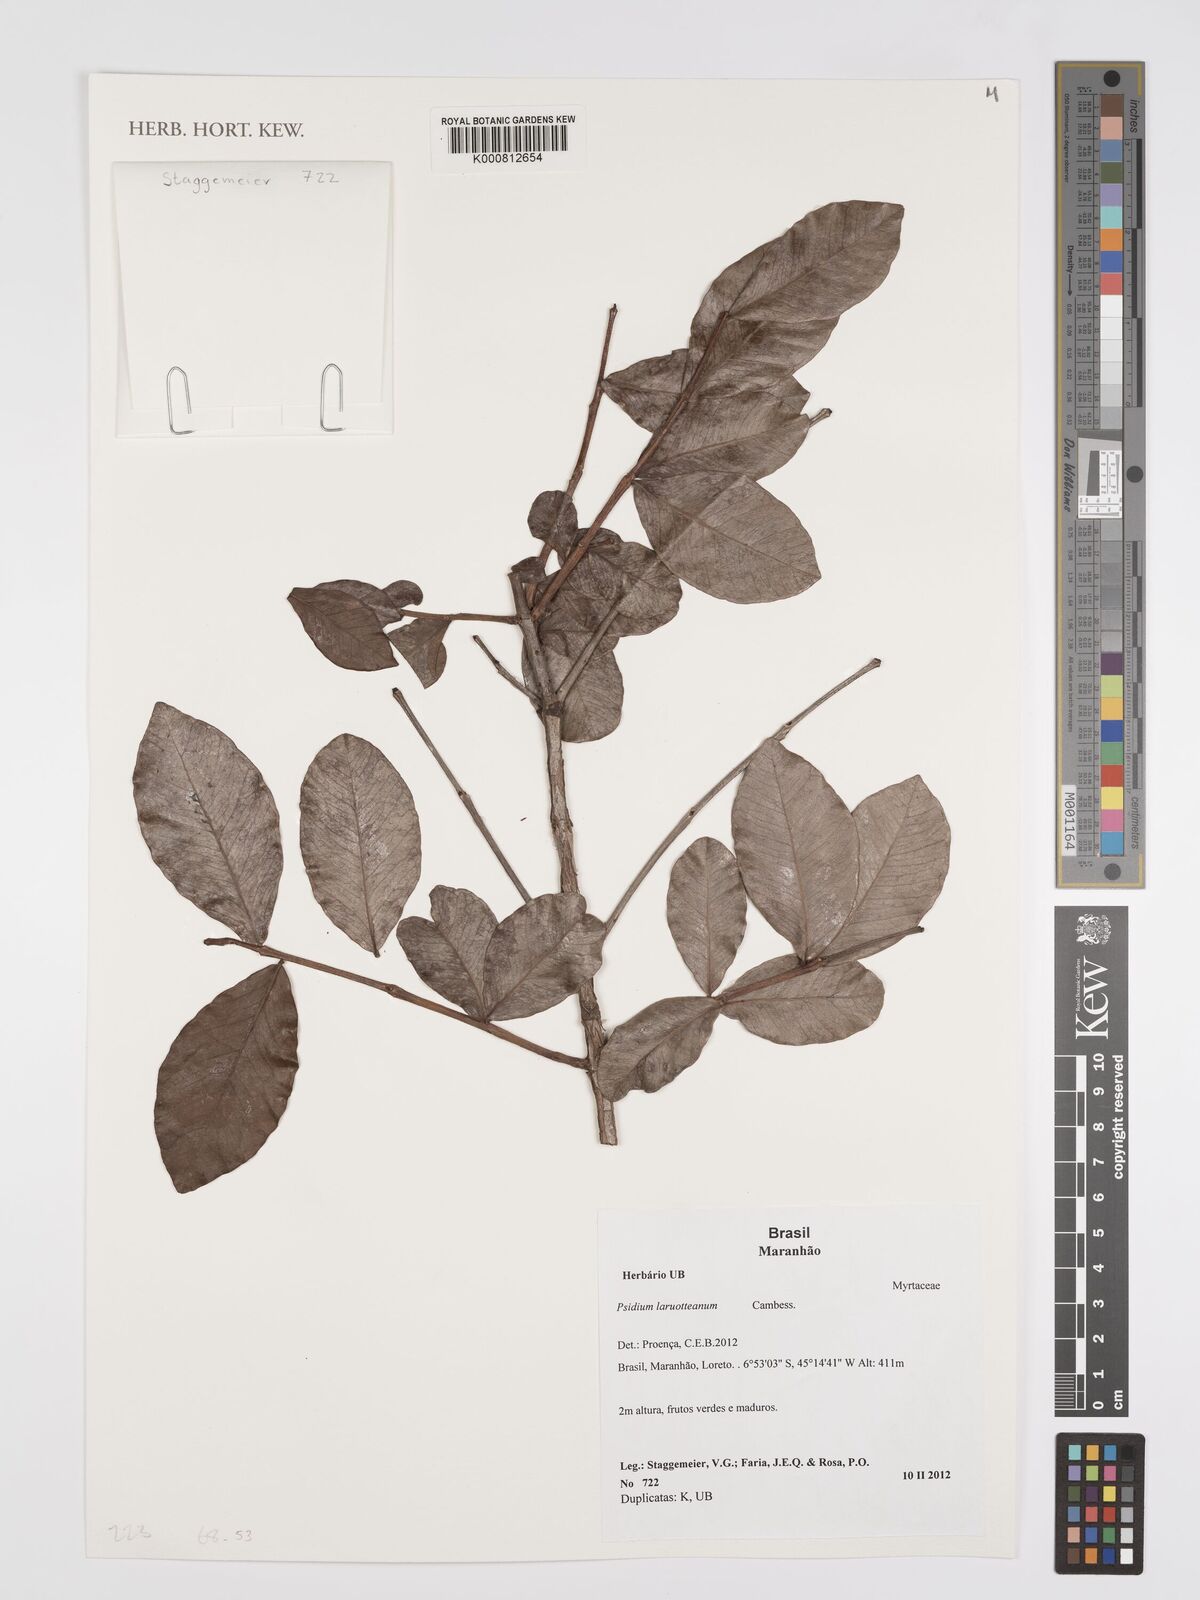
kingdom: Plantae
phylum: Tracheophyta
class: Magnoliopsida
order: Myrtales
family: Myrtaceae
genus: Psidium
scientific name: Psidium larueotteanum
